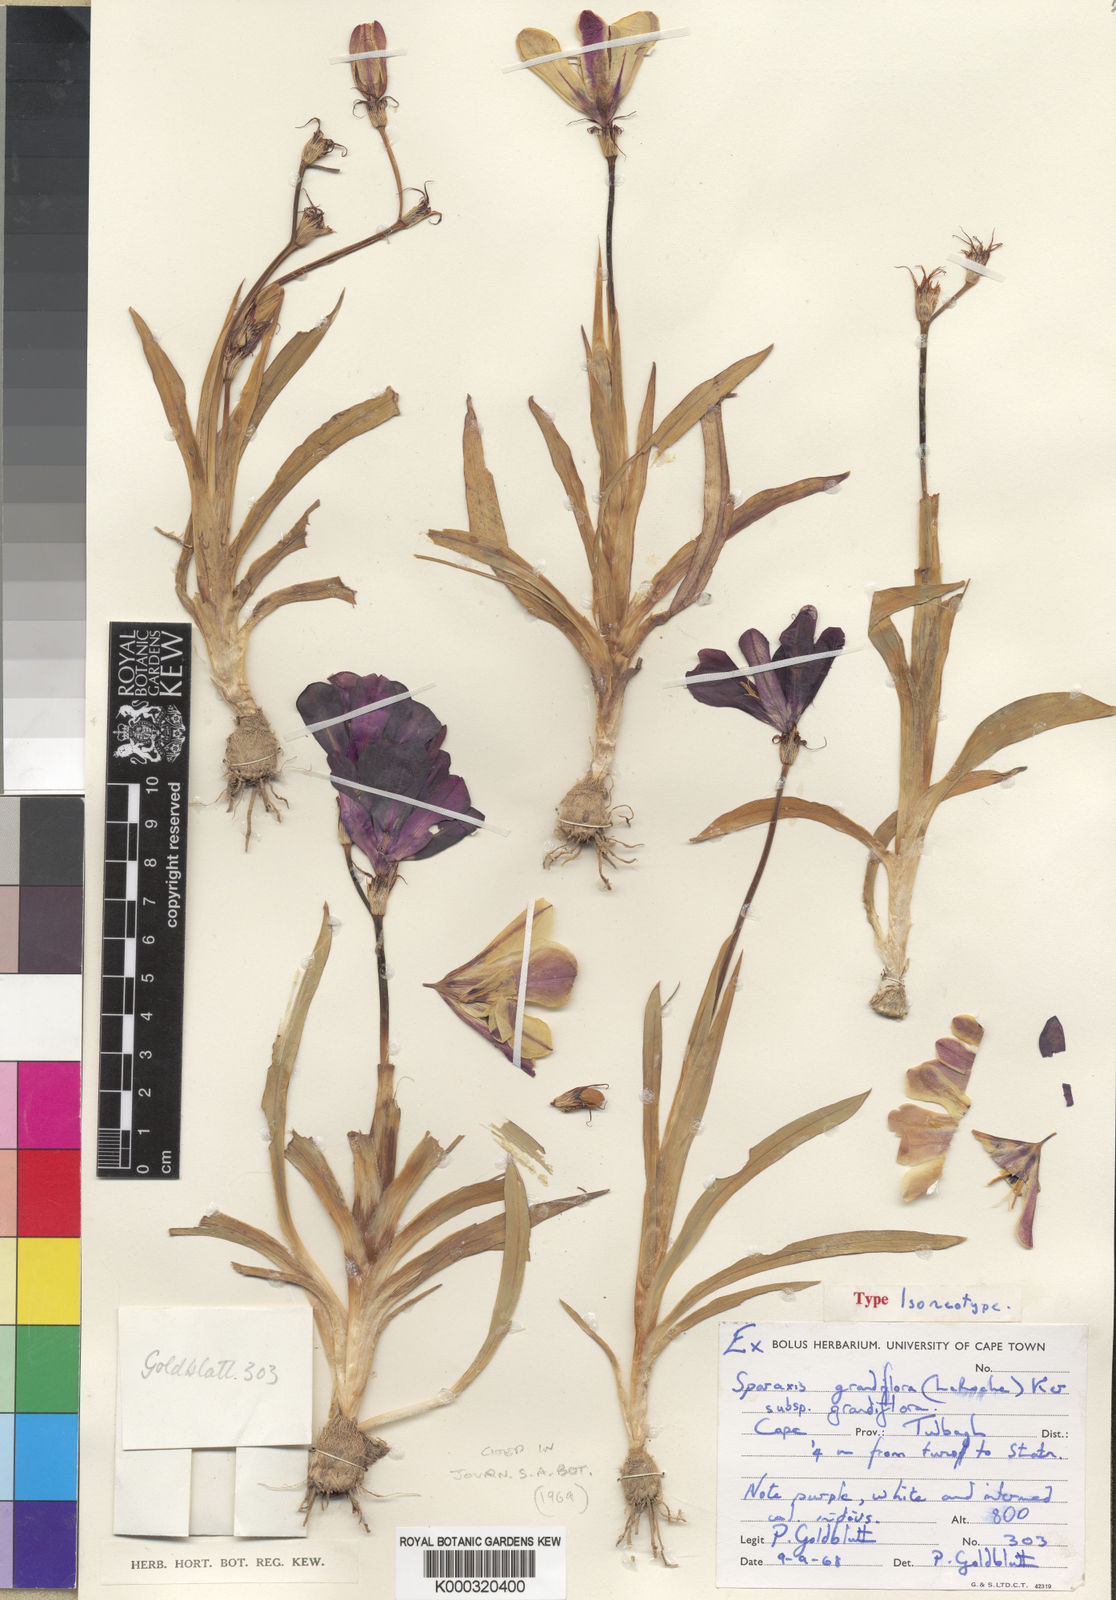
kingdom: Plantae
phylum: Tracheophyta
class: Liliopsida
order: Asparagales
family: Iridaceae
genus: Sparaxis
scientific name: Sparaxis grandiflora
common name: Plain harlequin-flower
